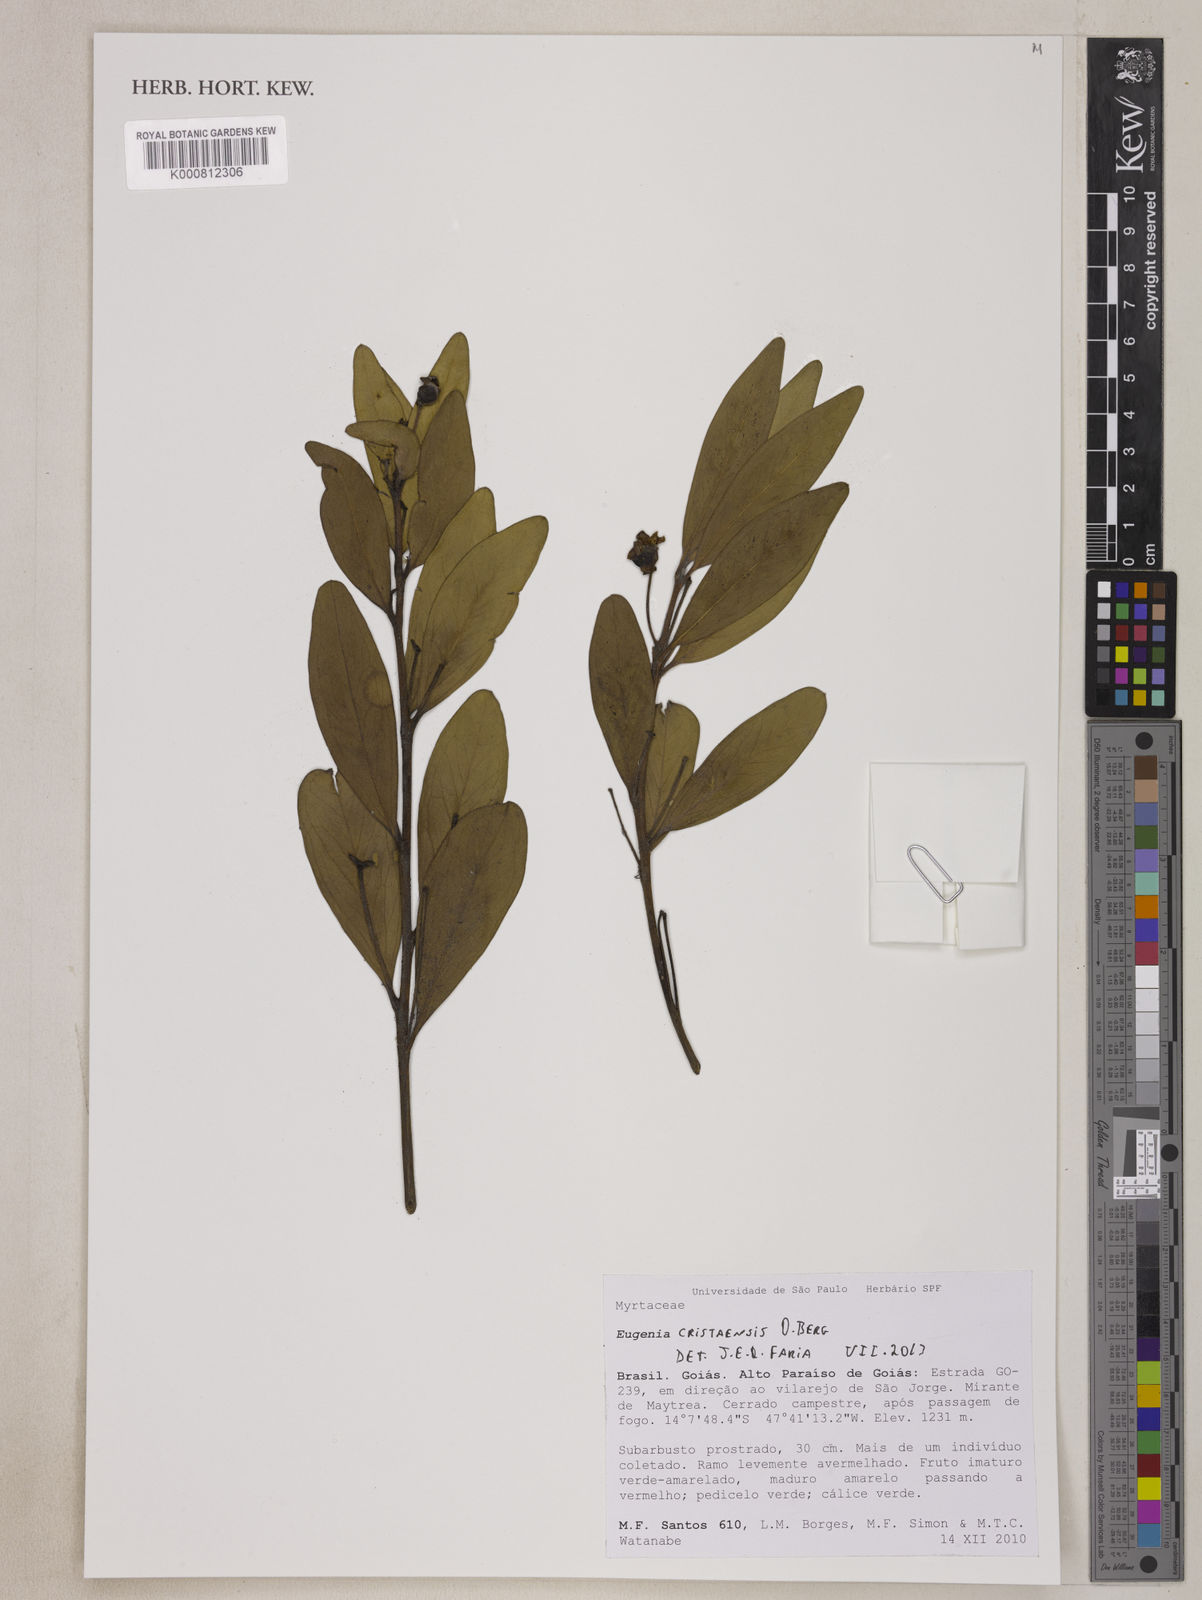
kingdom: Plantae
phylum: Tracheophyta
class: Magnoliopsida
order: Myrtales
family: Myrtaceae
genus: Eugenia
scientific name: Eugenia cristaensis
